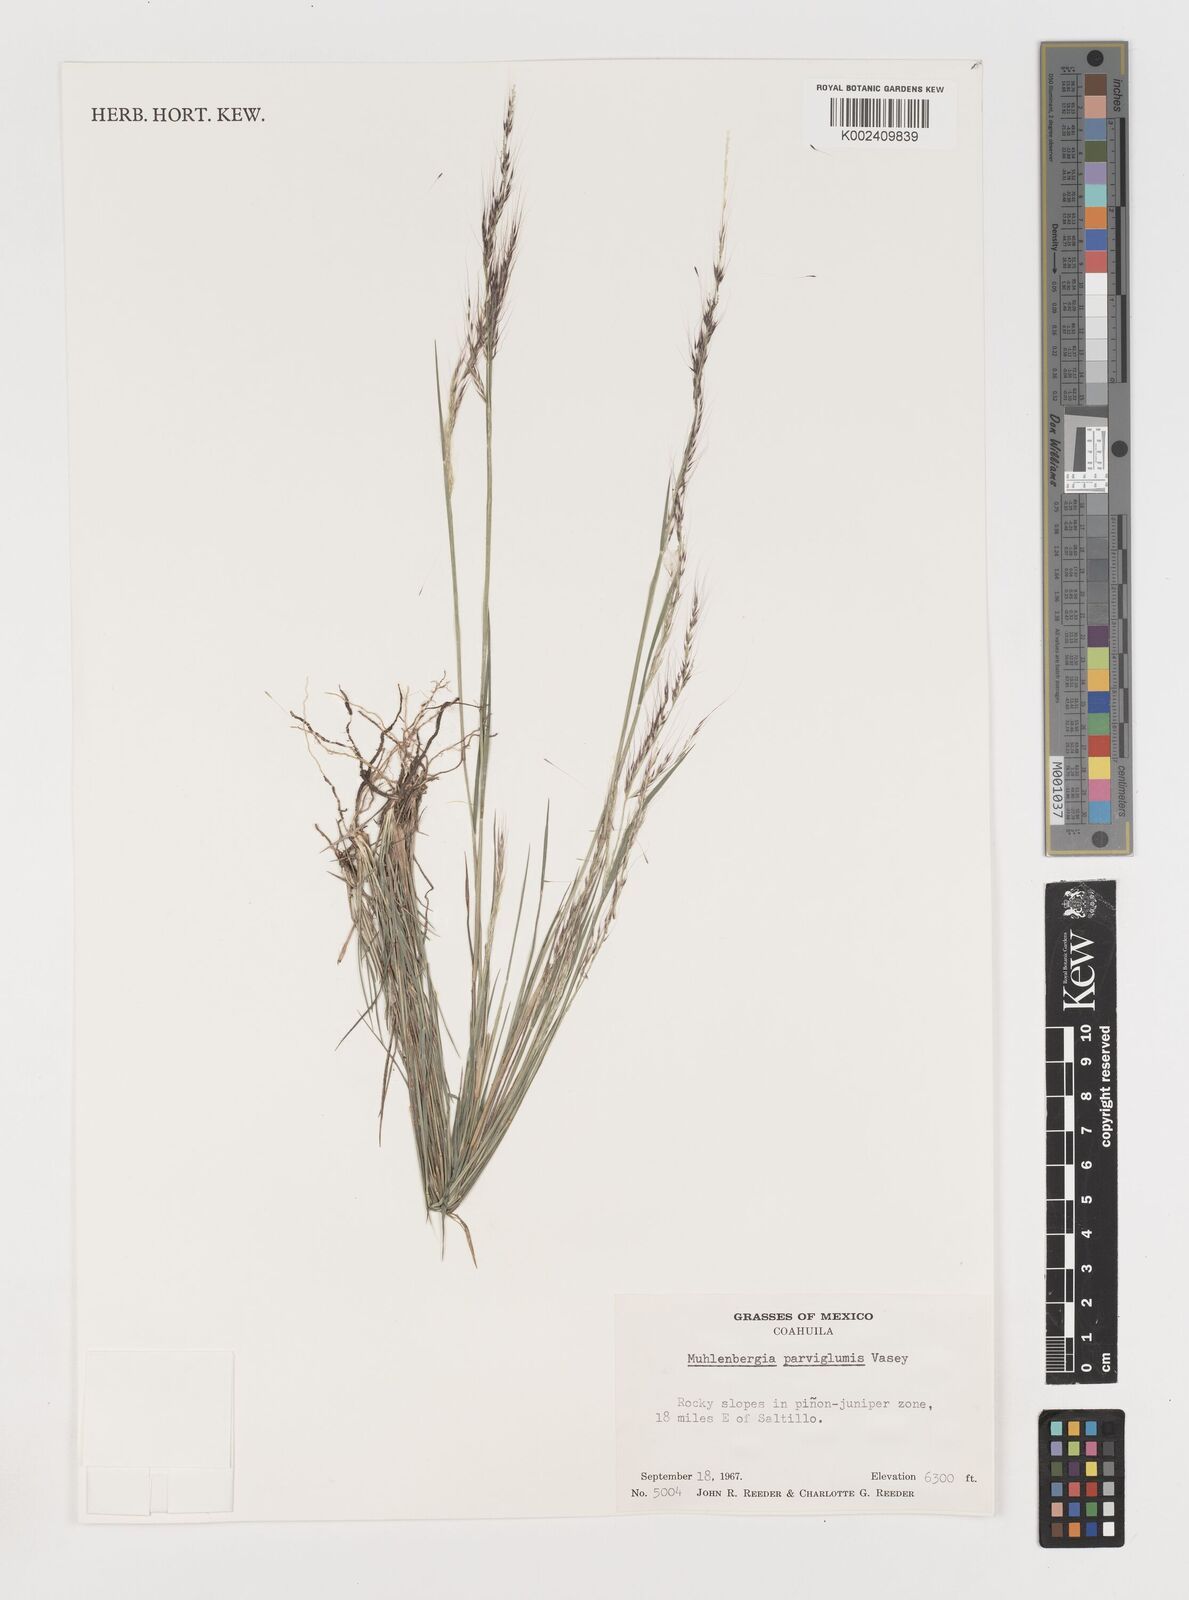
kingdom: Plantae
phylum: Tracheophyta
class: Liliopsida
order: Poales
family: Poaceae
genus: Muhlenbergia
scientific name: Muhlenbergia spiciformis
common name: Longawn muhly
